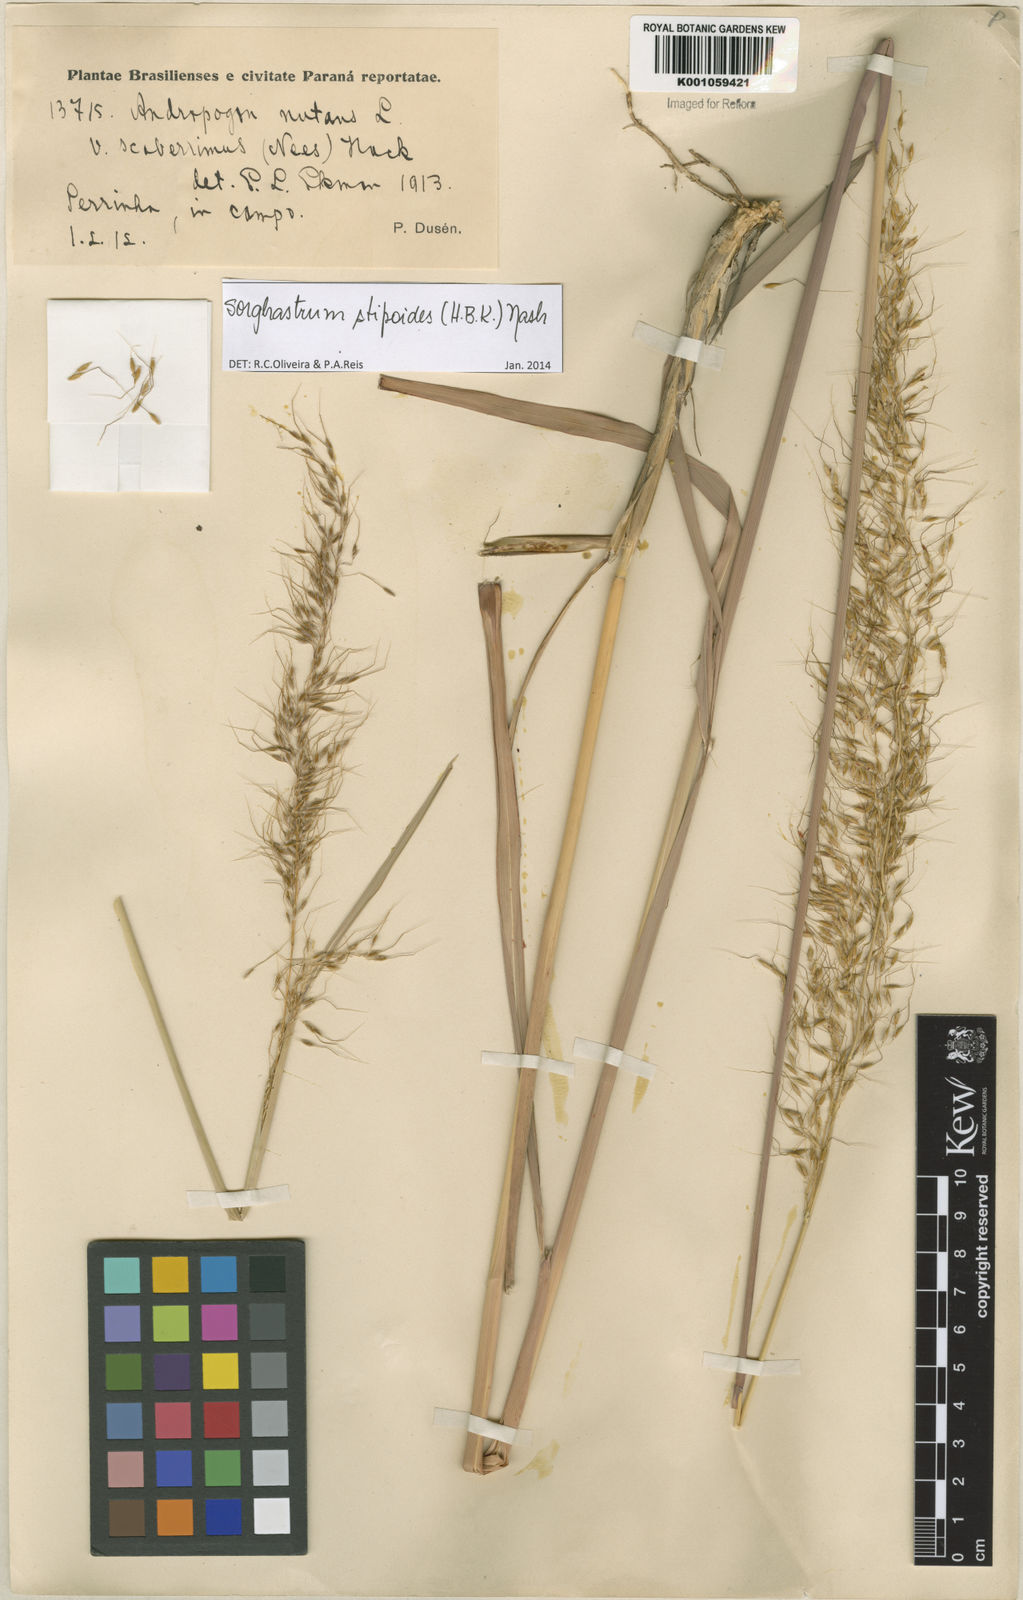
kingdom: Plantae
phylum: Tracheophyta
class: Liliopsida
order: Poales
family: Poaceae
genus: Sorghastrum
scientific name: Sorghastrum stipoides
